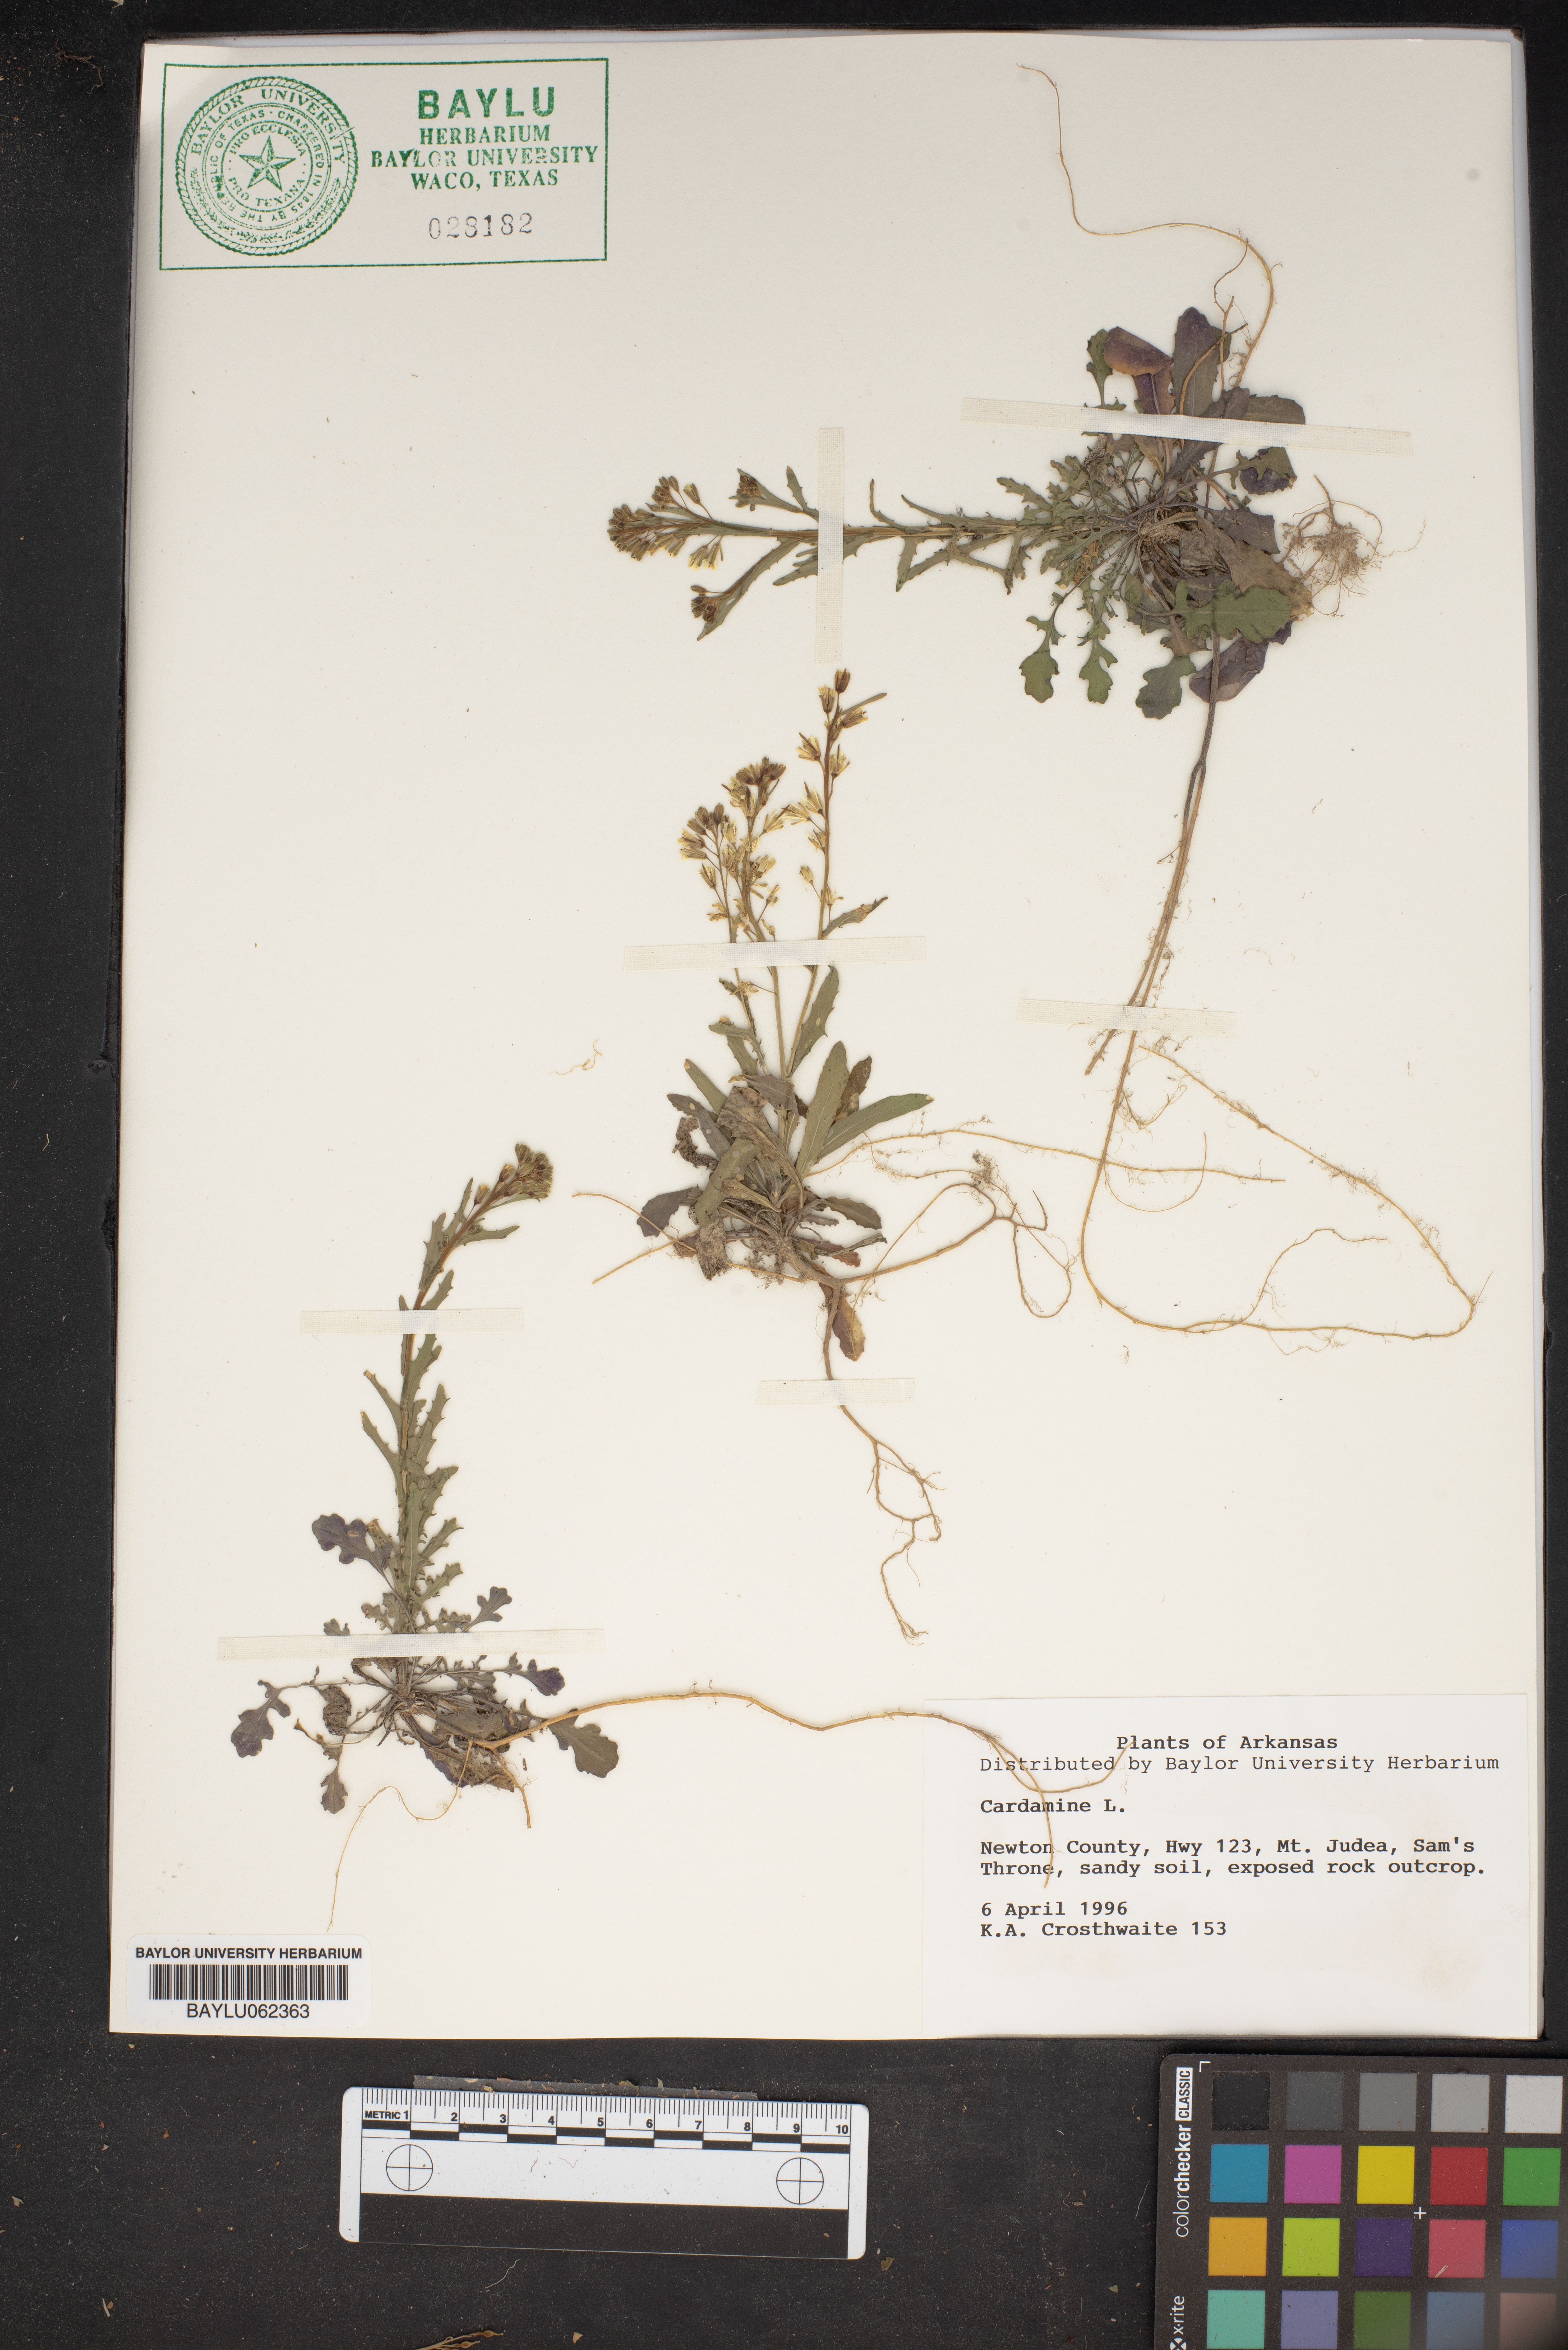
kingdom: Plantae
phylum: Tracheophyta
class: Magnoliopsida
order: Brassicales
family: Brassicaceae
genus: Cardamine
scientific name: Cardamine
